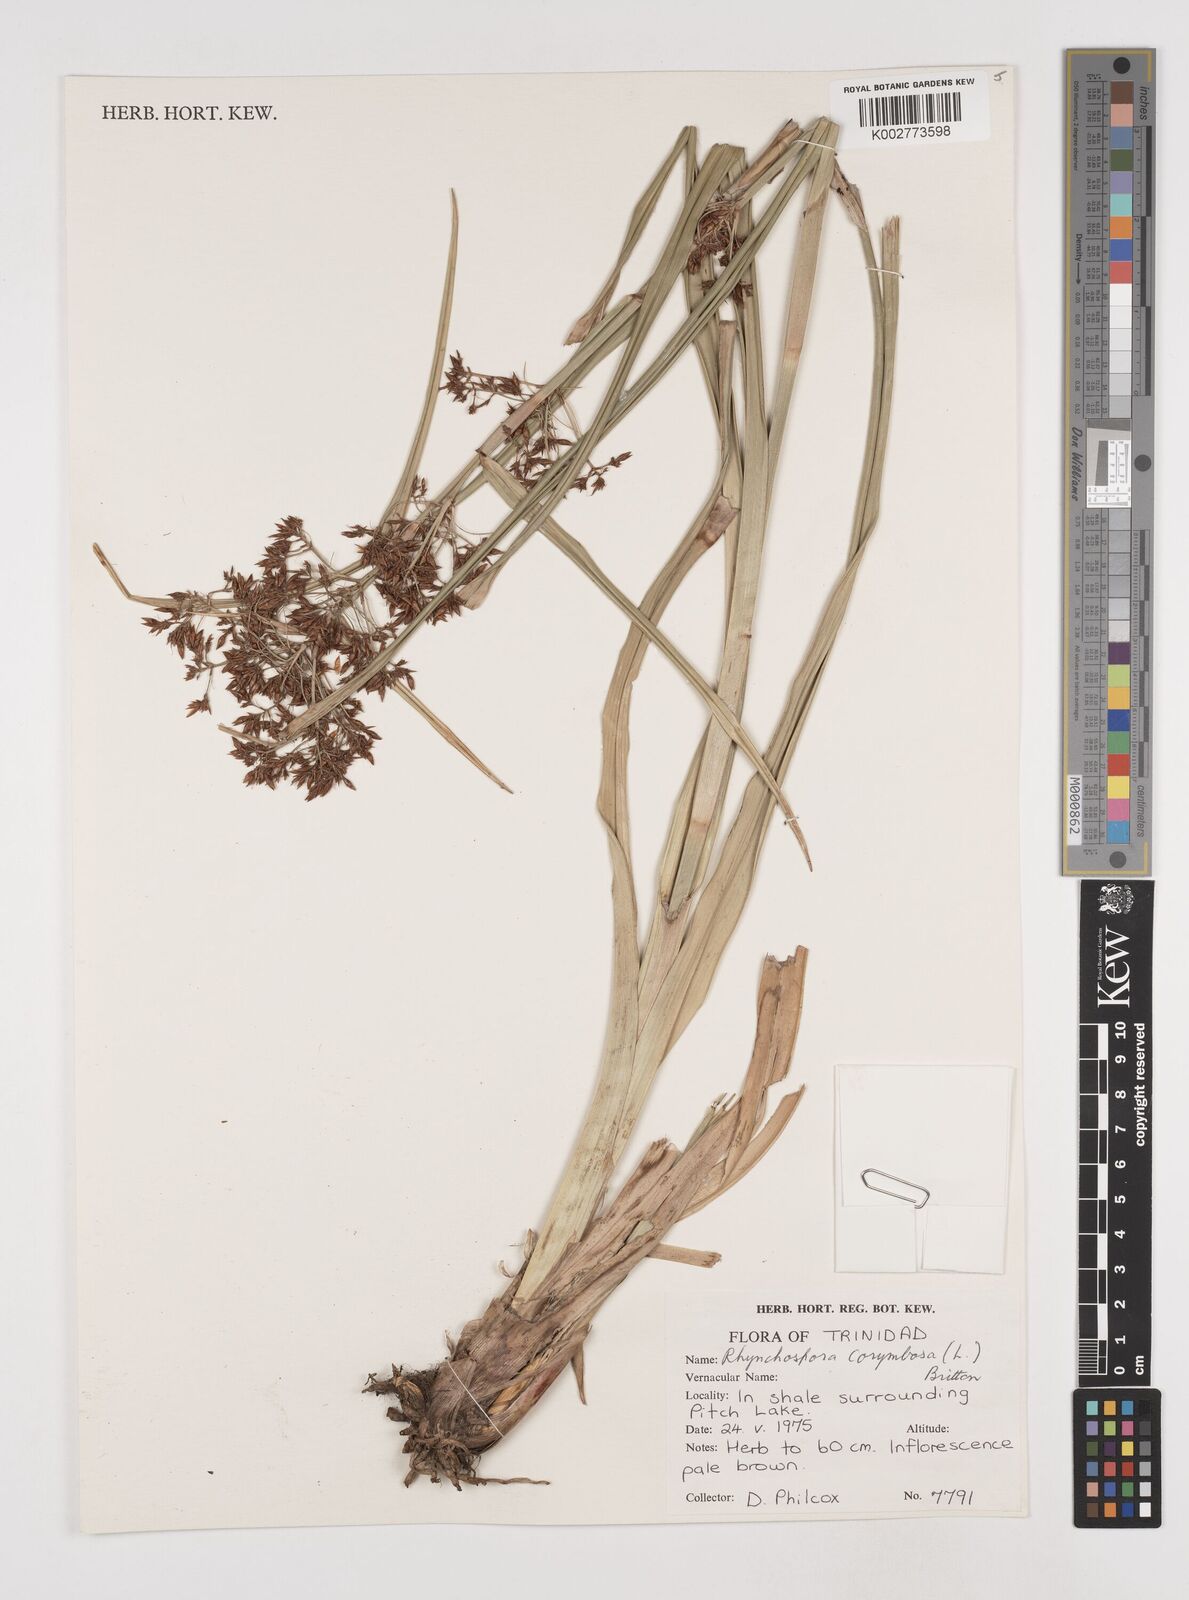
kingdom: Plantae
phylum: Tracheophyta
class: Liliopsida
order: Poales
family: Cyperaceae
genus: Rhynchospora
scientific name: Rhynchospora corymbosa
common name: Golden beak sedge
